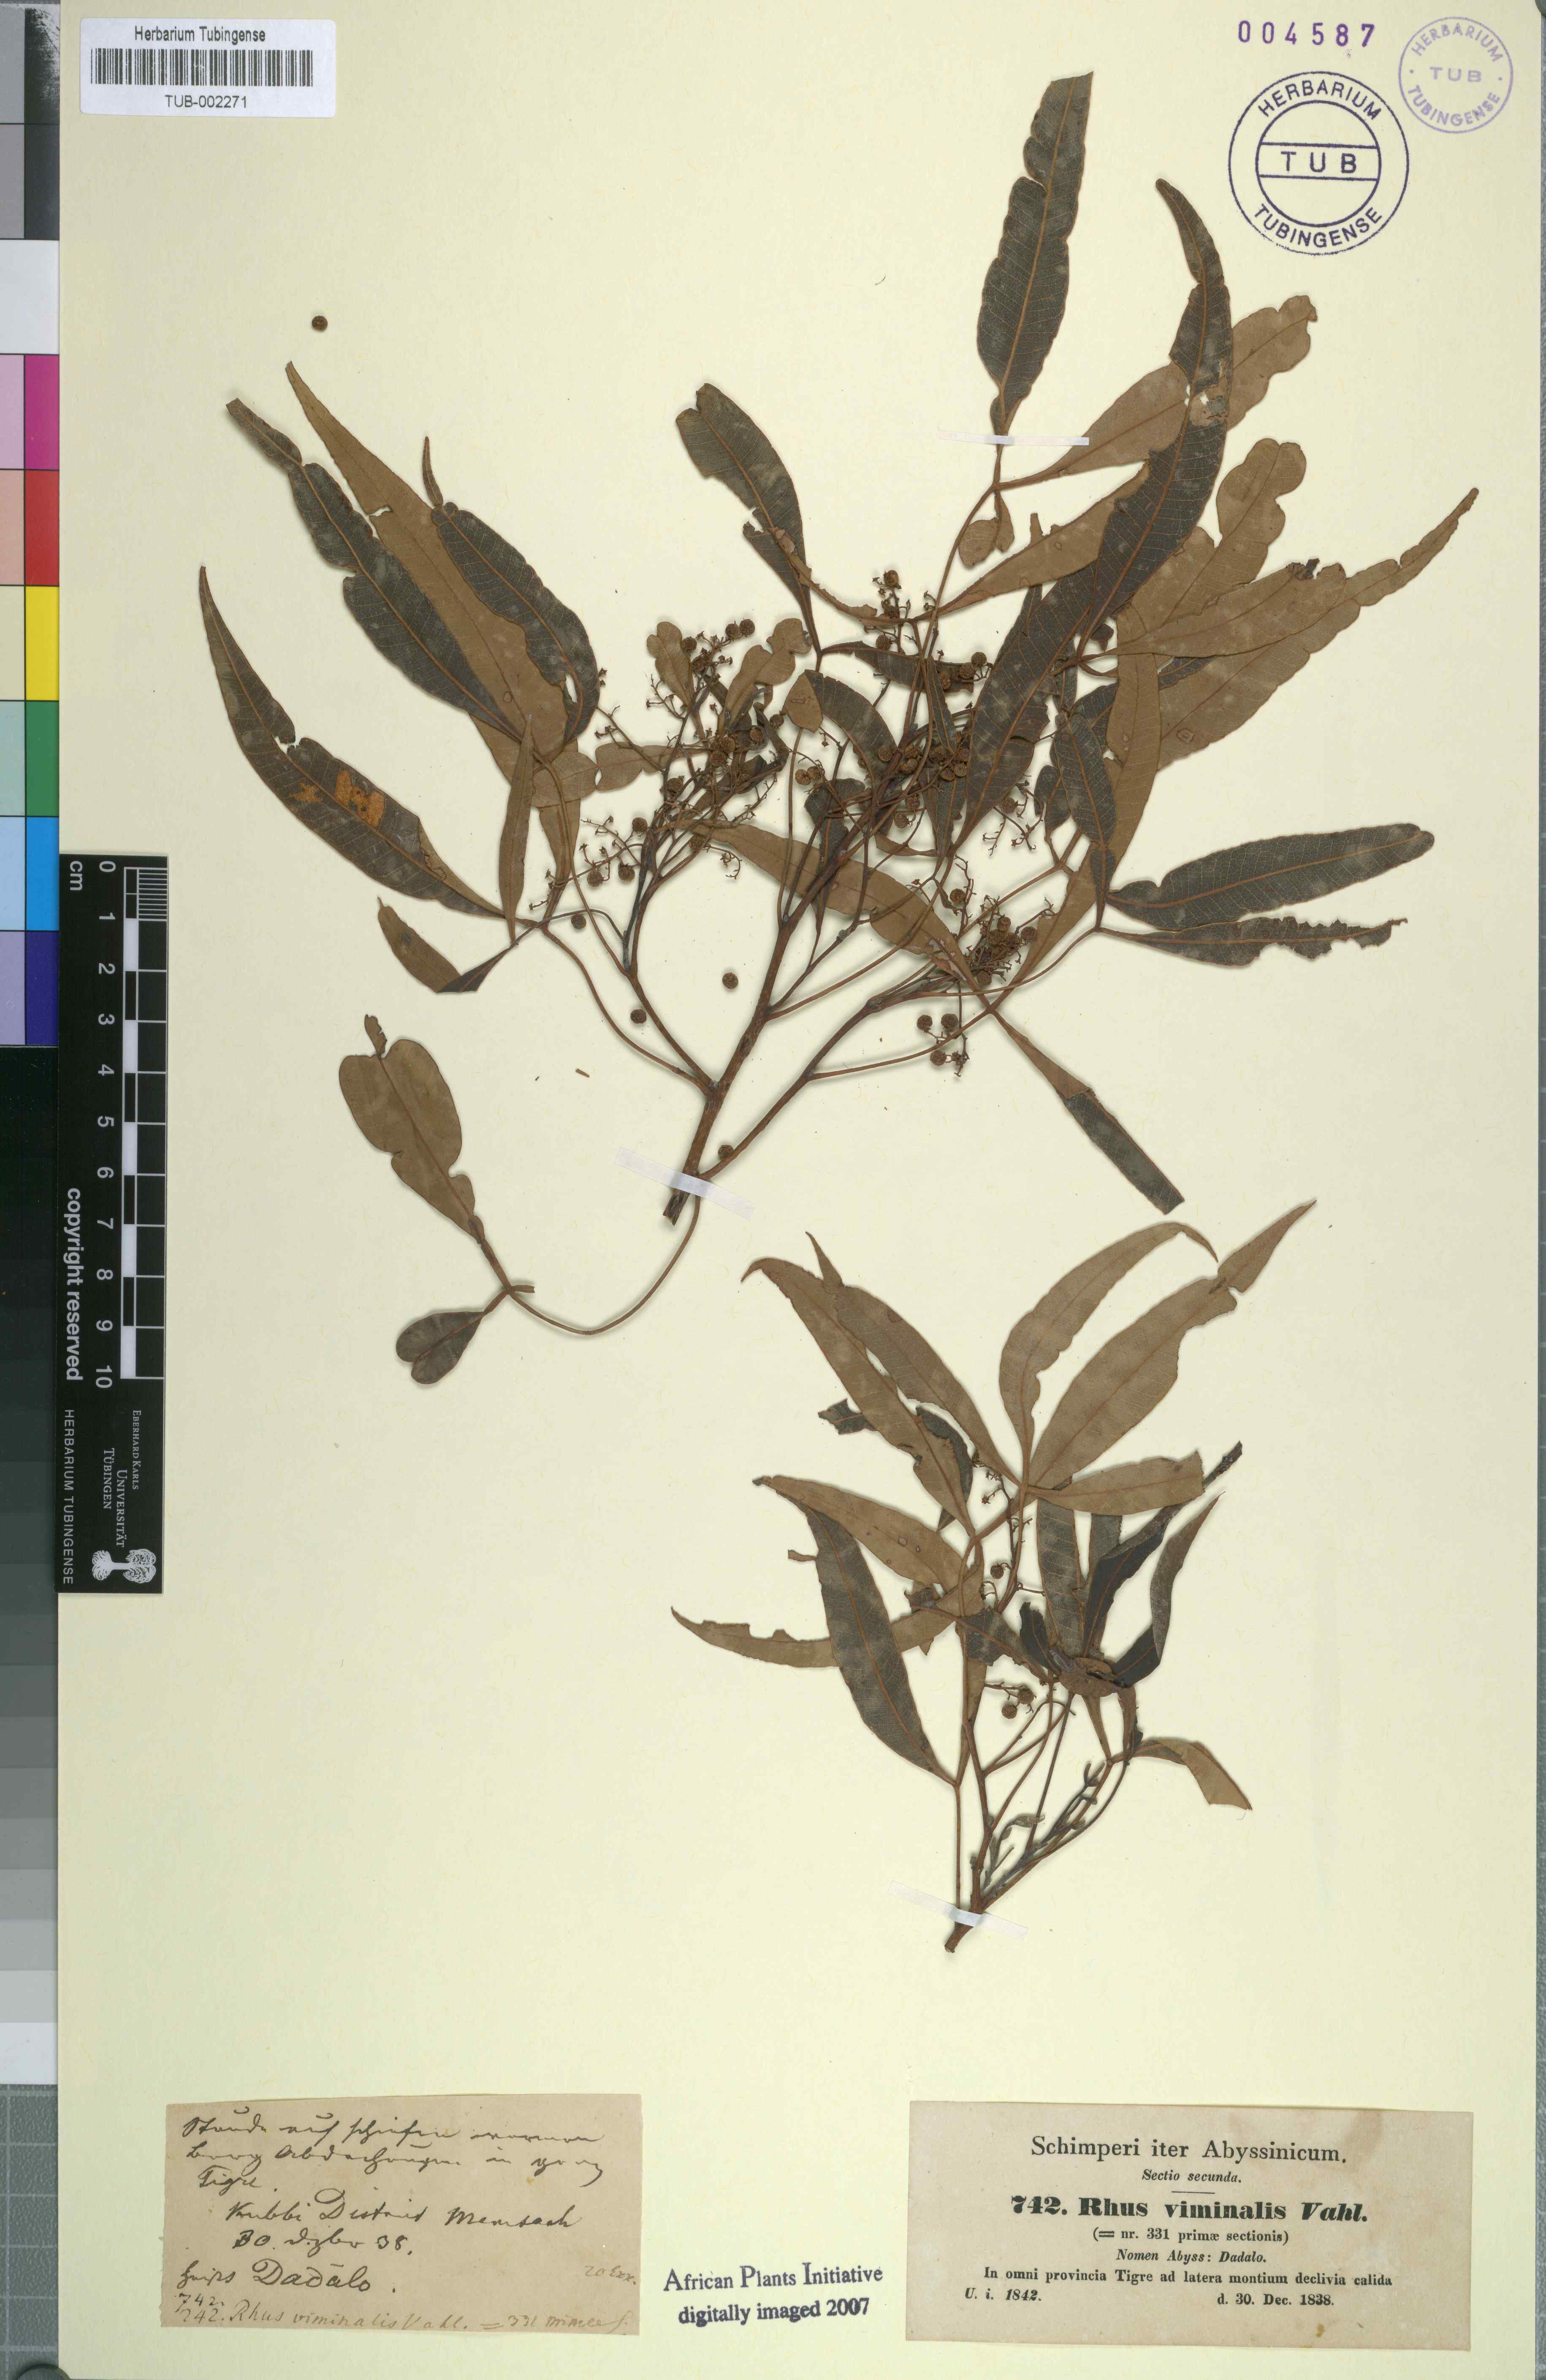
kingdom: Plantae
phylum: Tracheophyta
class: Magnoliopsida
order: Sapindales
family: Anacardiaceae
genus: Searsia
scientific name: Searsia gerrardii
